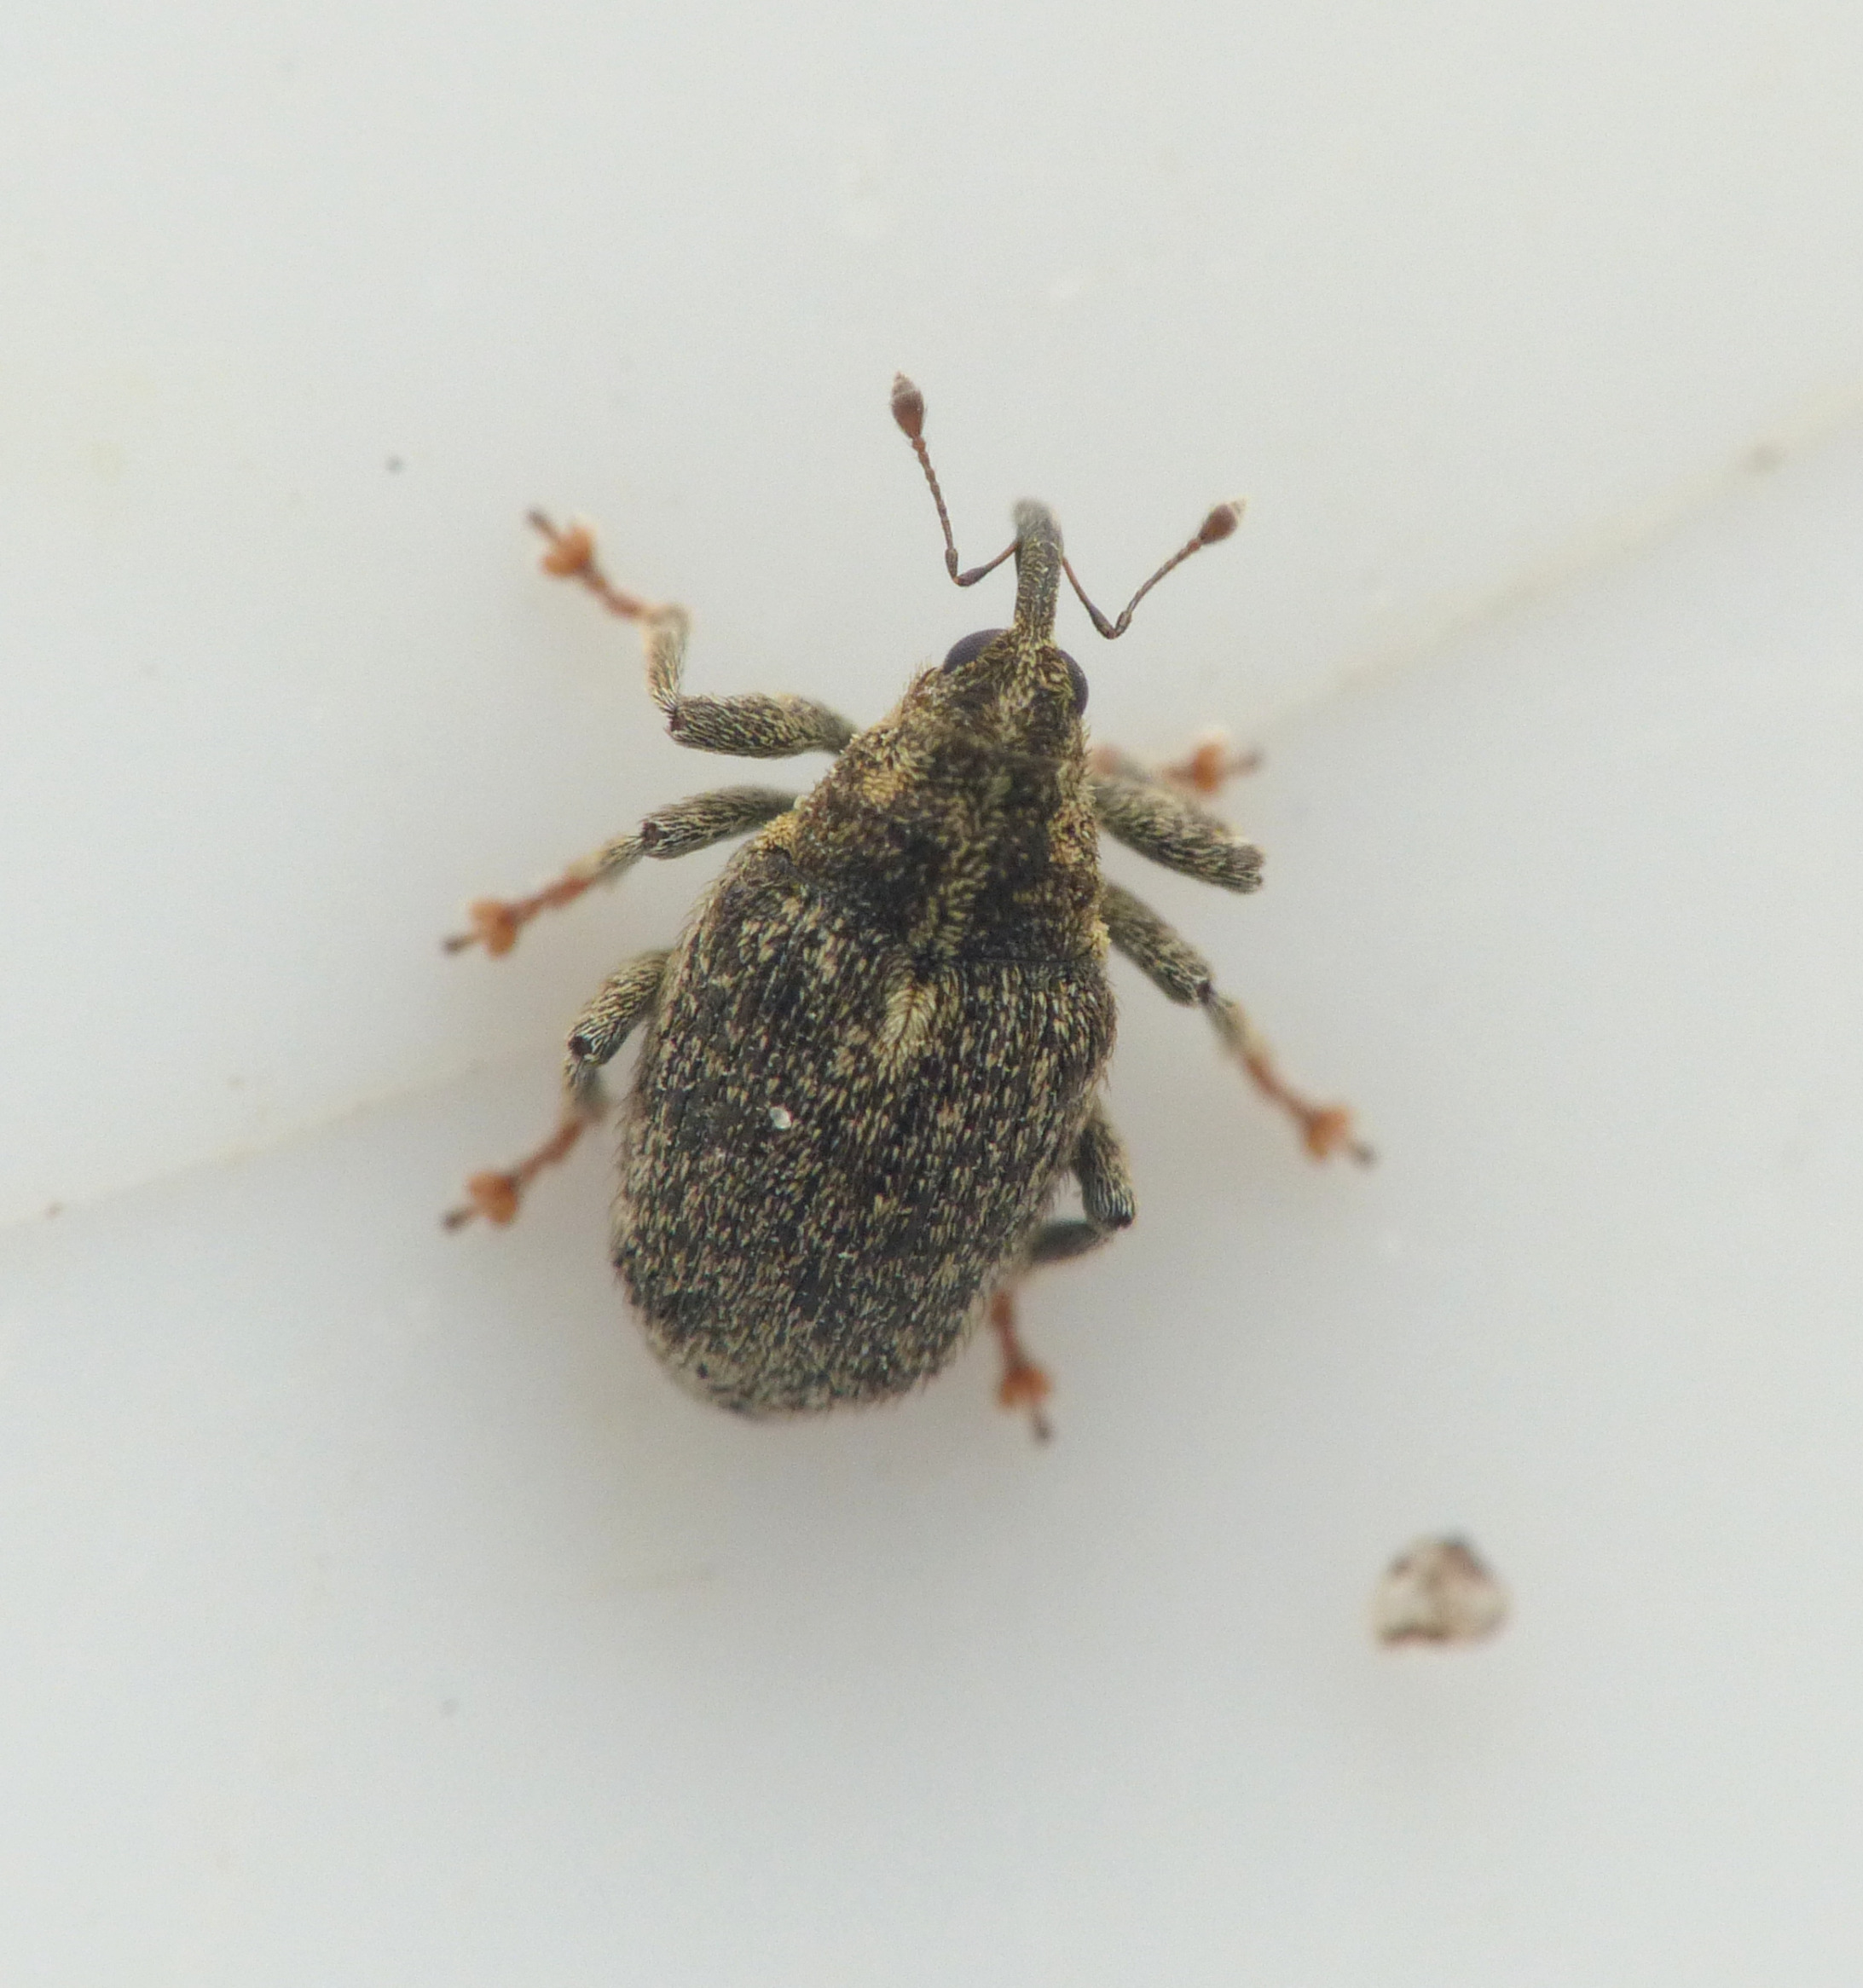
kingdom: Animalia
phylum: Arthropoda
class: Insecta
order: Coleoptera
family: Curculionidae
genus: Ceutorhynchus
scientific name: Ceutorhynchus pallidactylus
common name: Bladribbesnudebille
